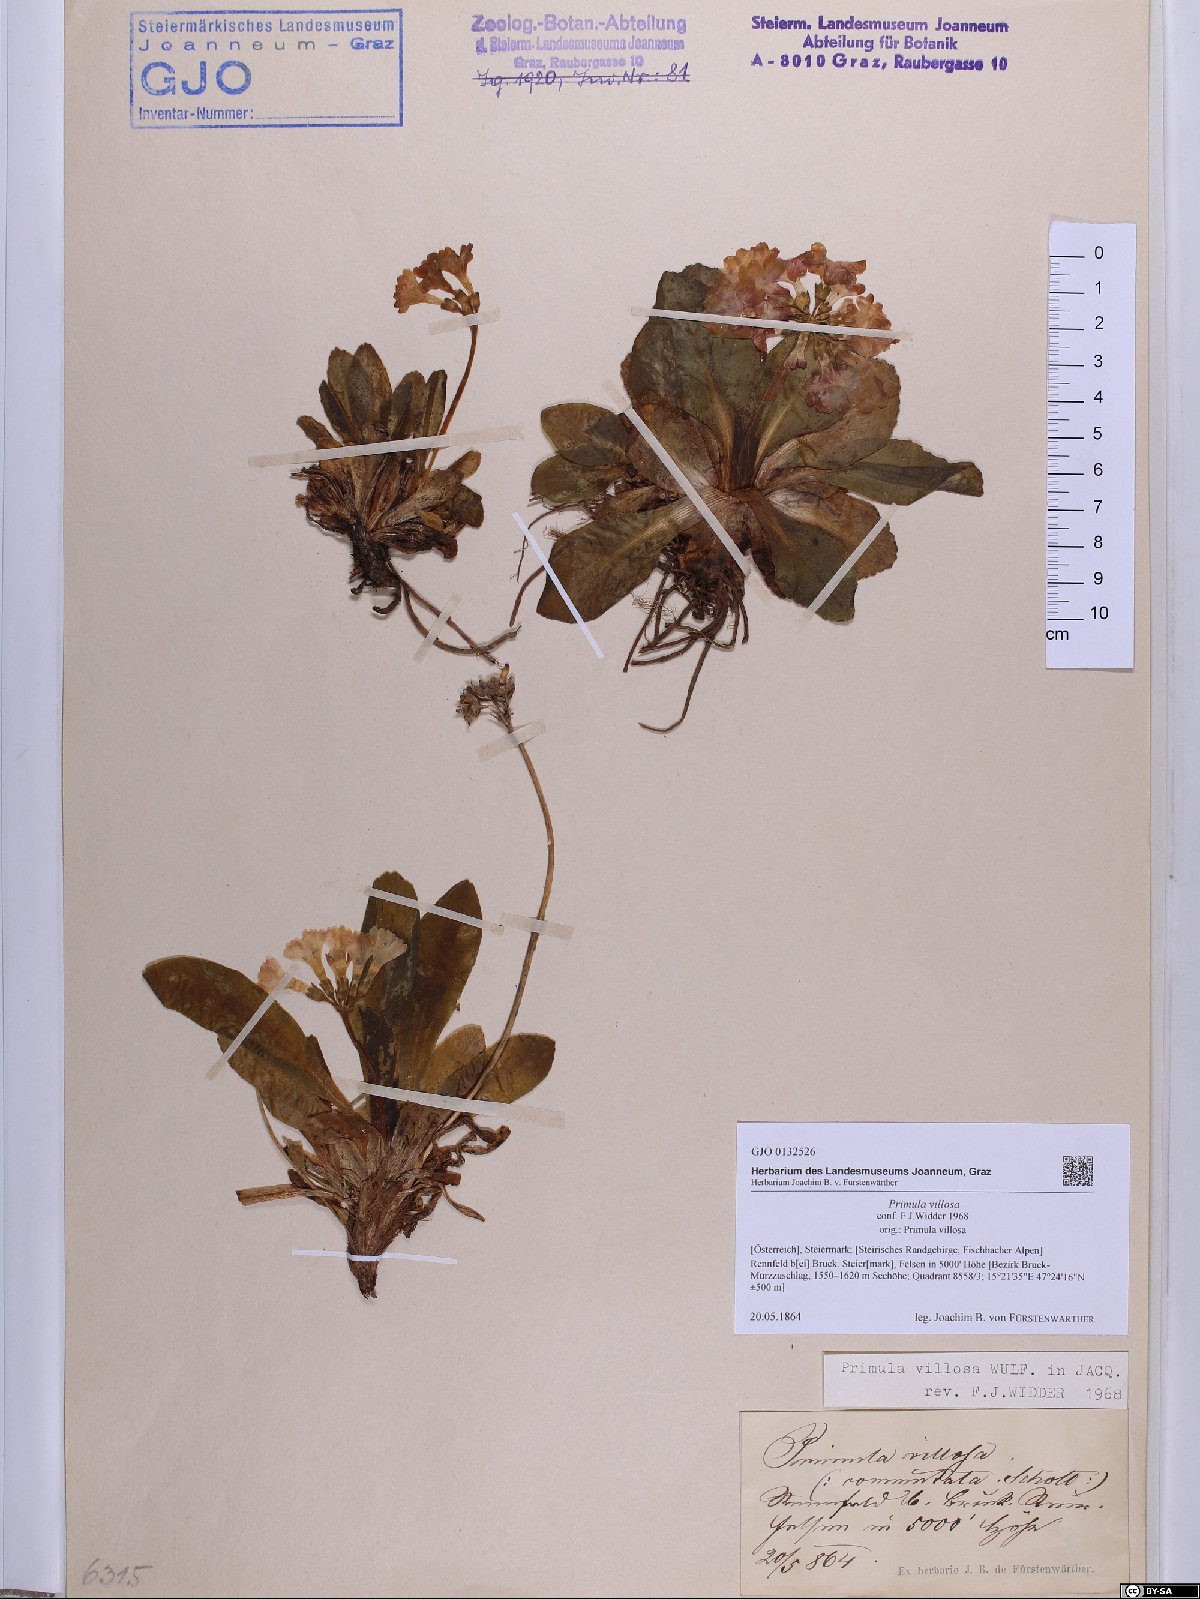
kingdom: Plantae
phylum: Tracheophyta
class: Magnoliopsida
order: Ericales
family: Primulaceae
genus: Primula
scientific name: Primula villosa
